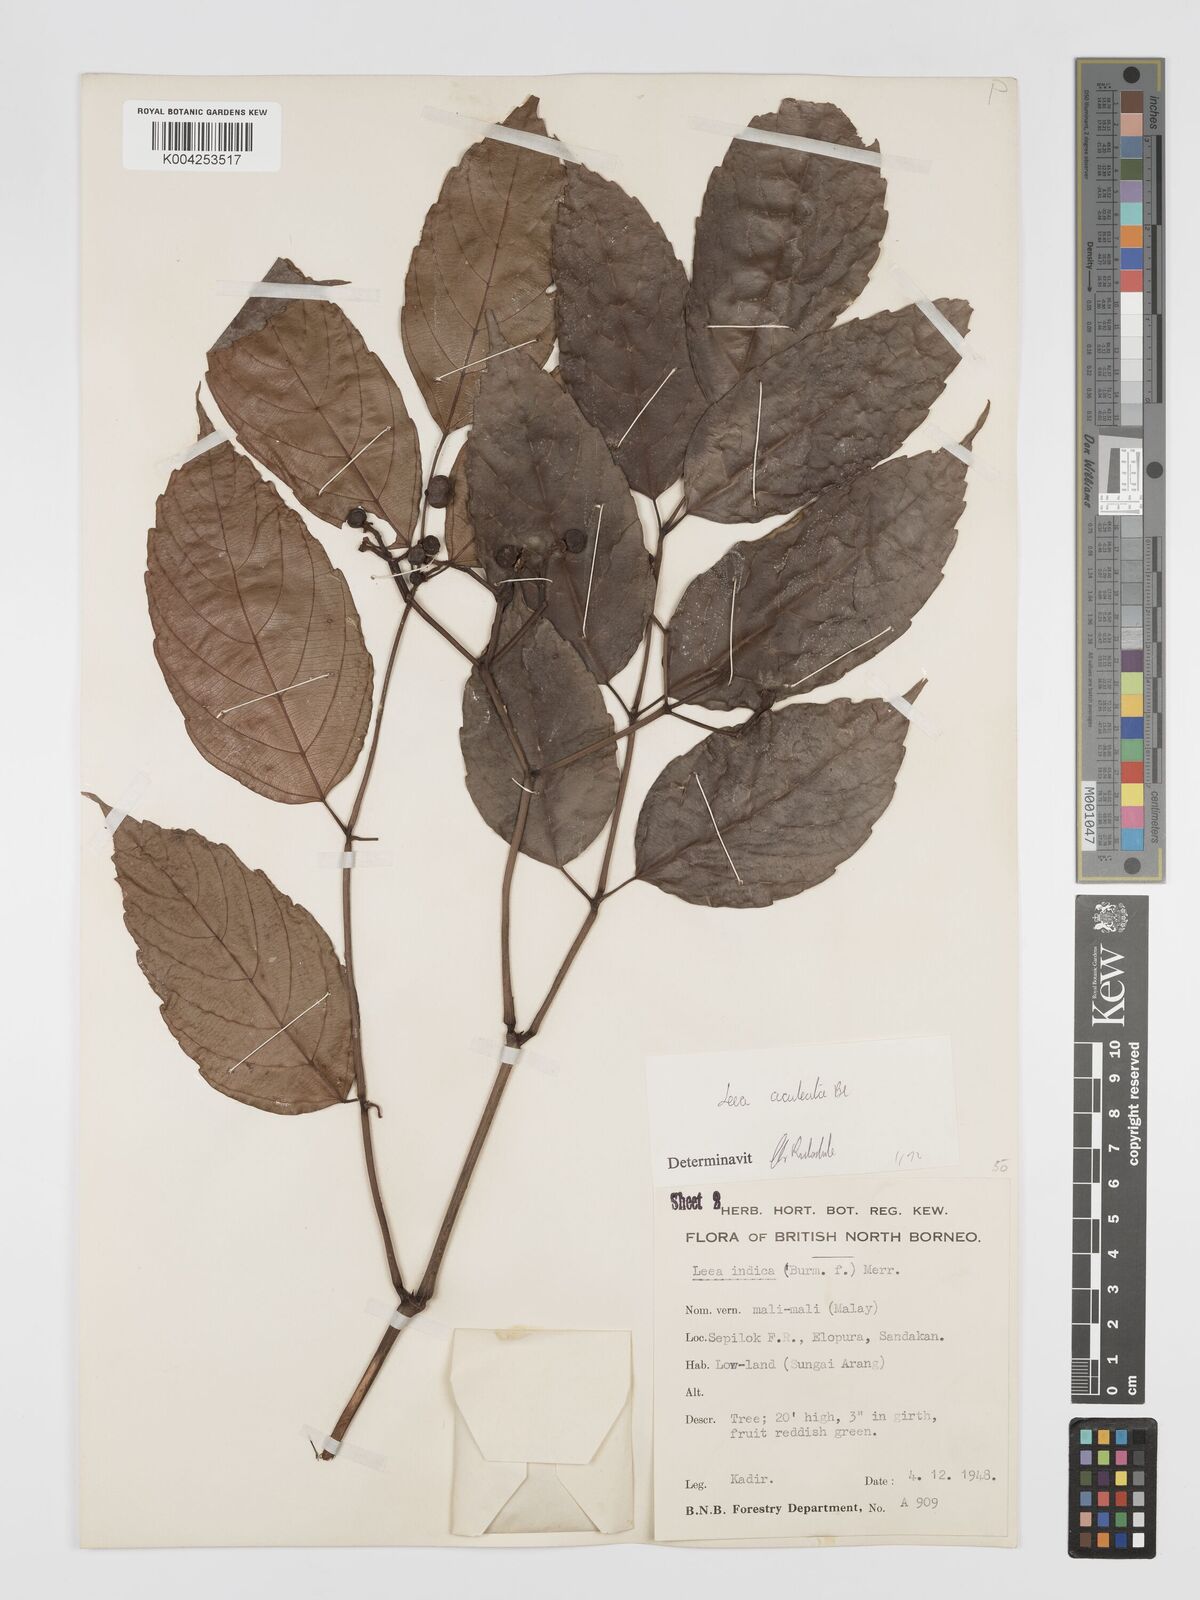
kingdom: Plantae
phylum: Tracheophyta
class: Magnoliopsida
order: Vitales
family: Vitaceae
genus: Leea
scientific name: Leea aculeata
